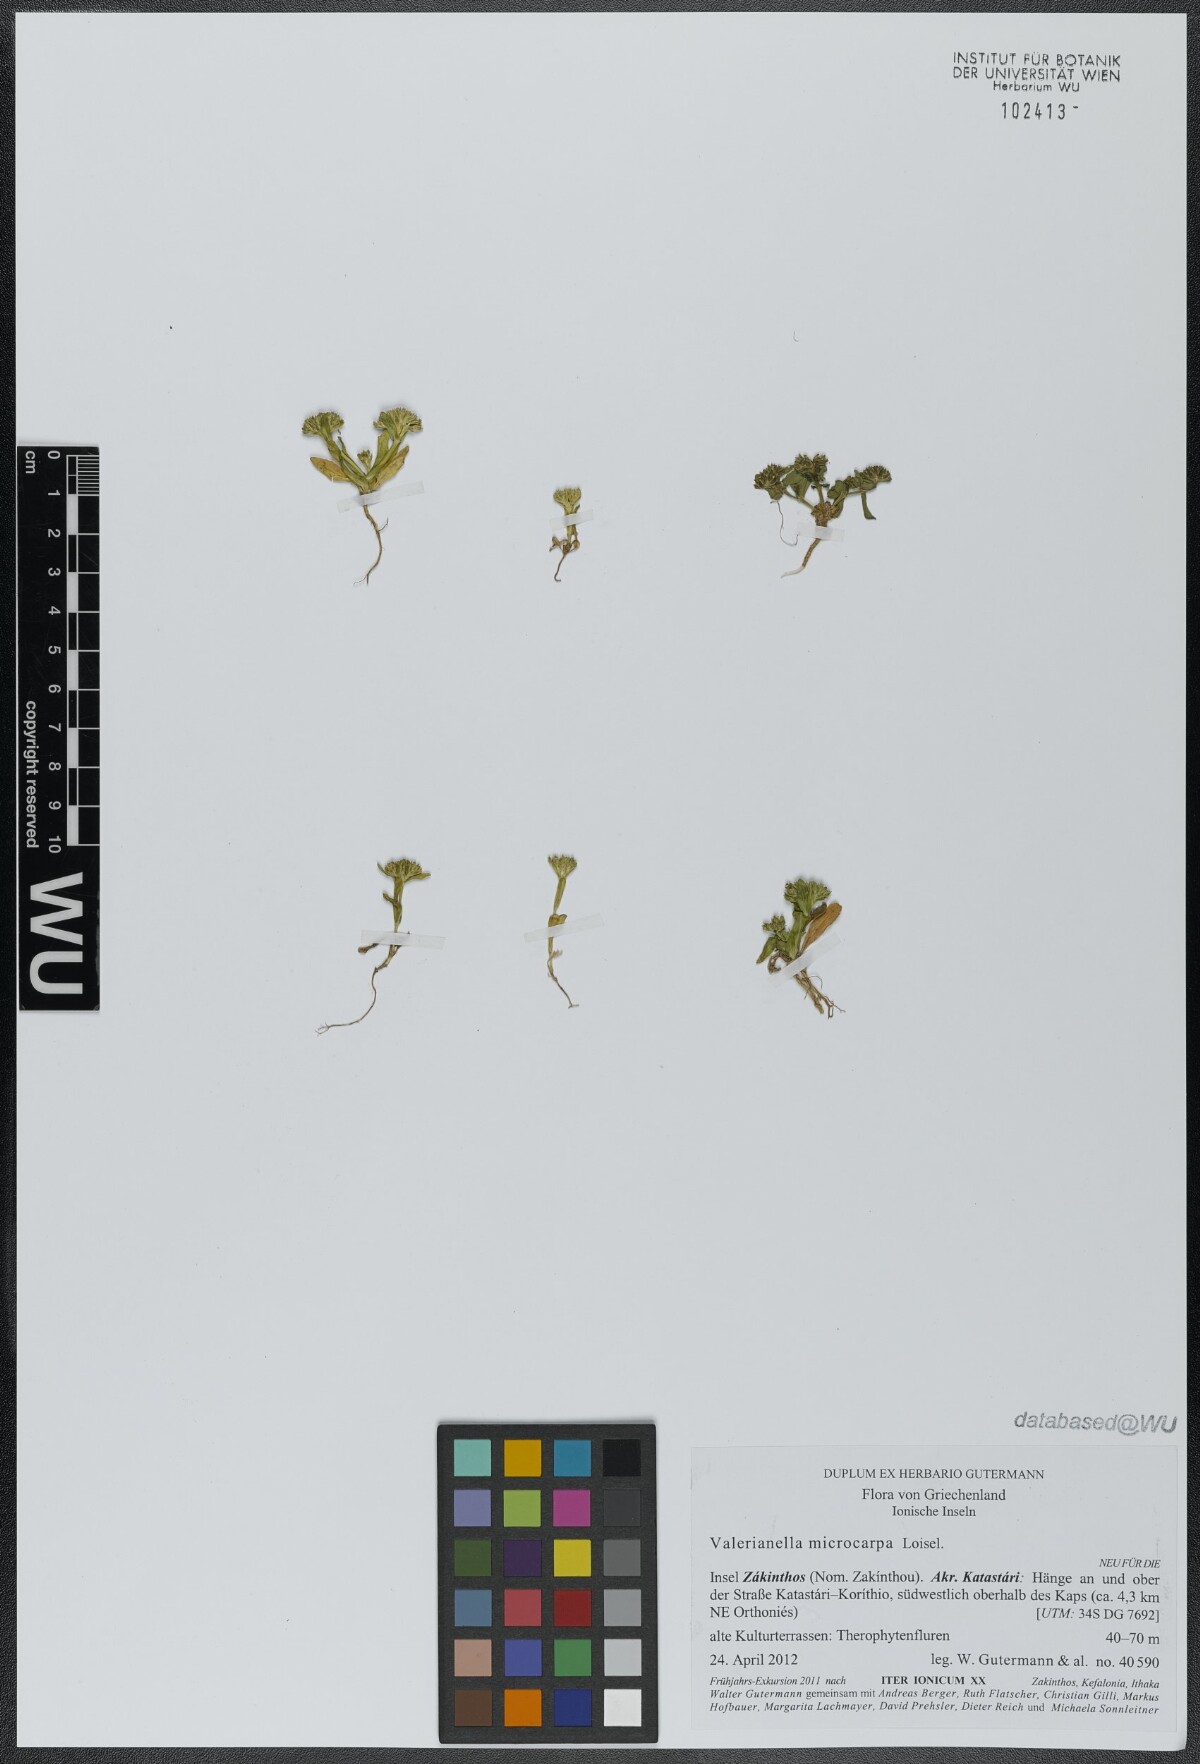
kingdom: Plantae
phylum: Tracheophyta
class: Magnoliopsida
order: Dipsacales
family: Caprifoliaceae
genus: Valerianella
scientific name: Valerianella microcarpa
